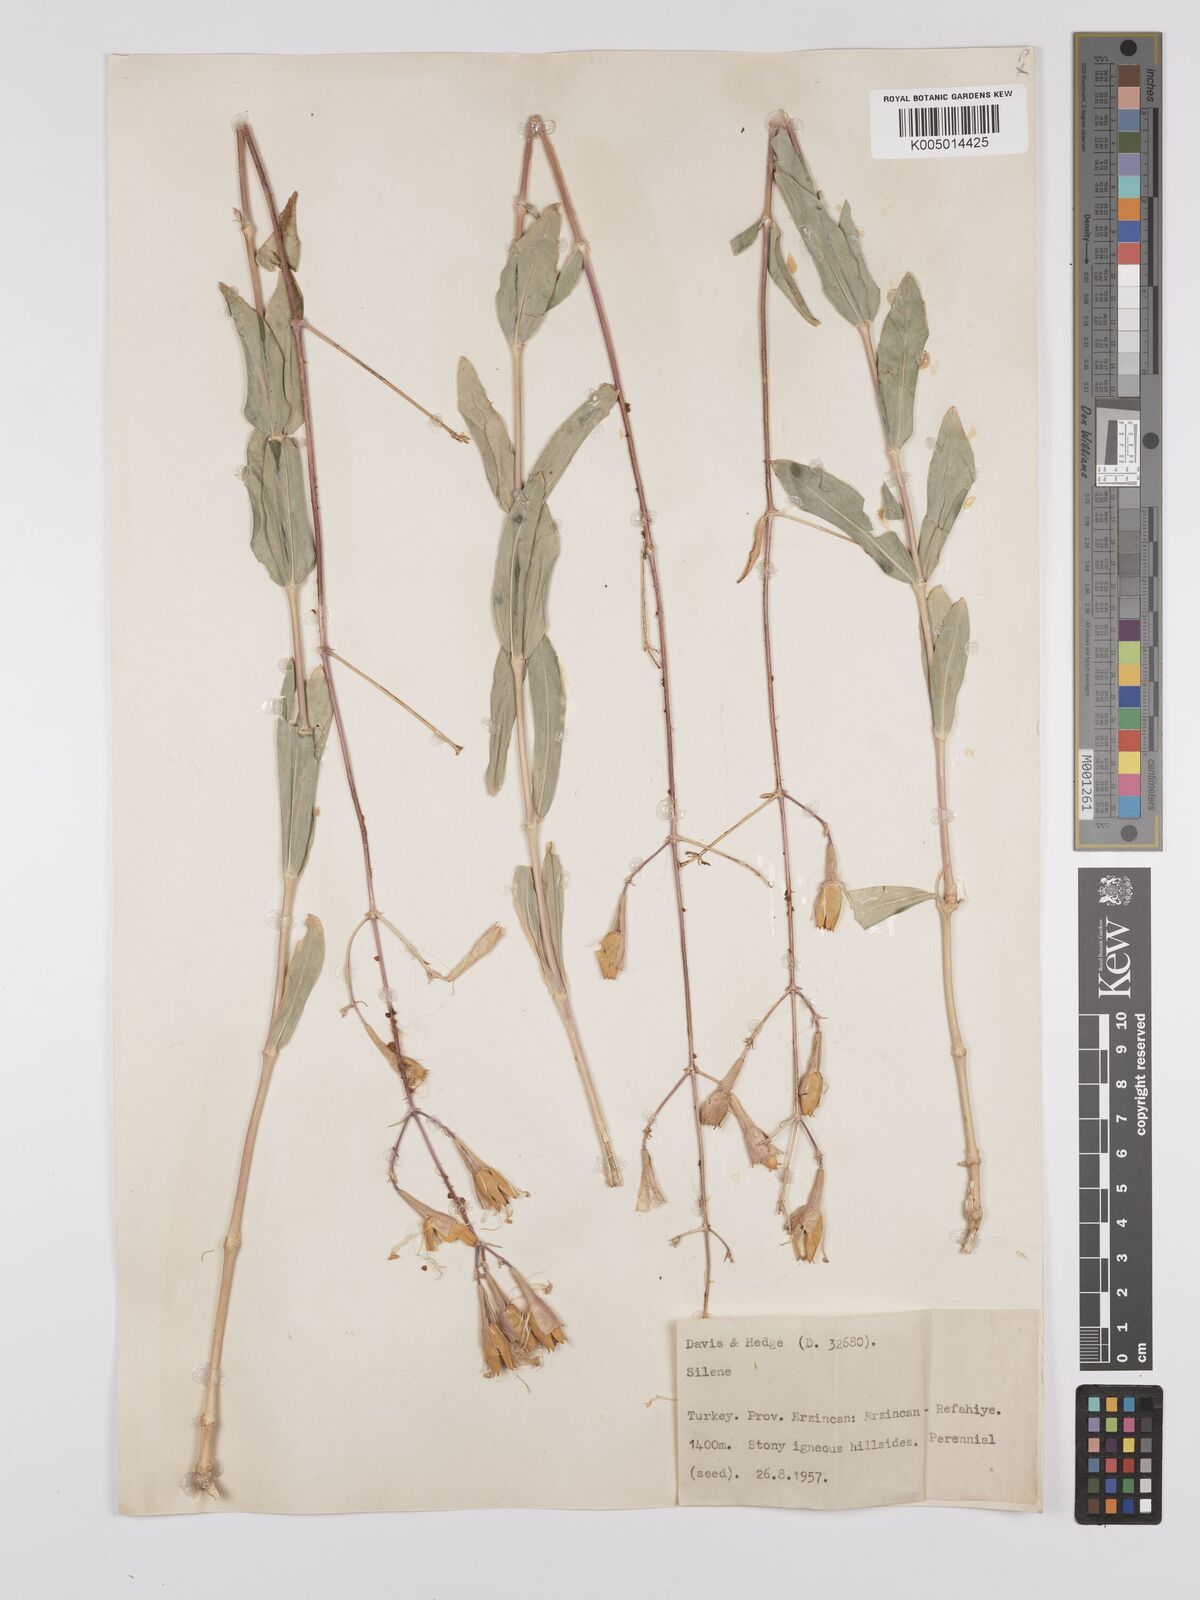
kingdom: Plantae
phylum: Tracheophyta
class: Magnoliopsida
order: Caryophyllales
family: Caryophyllaceae
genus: Silene
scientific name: Silene
